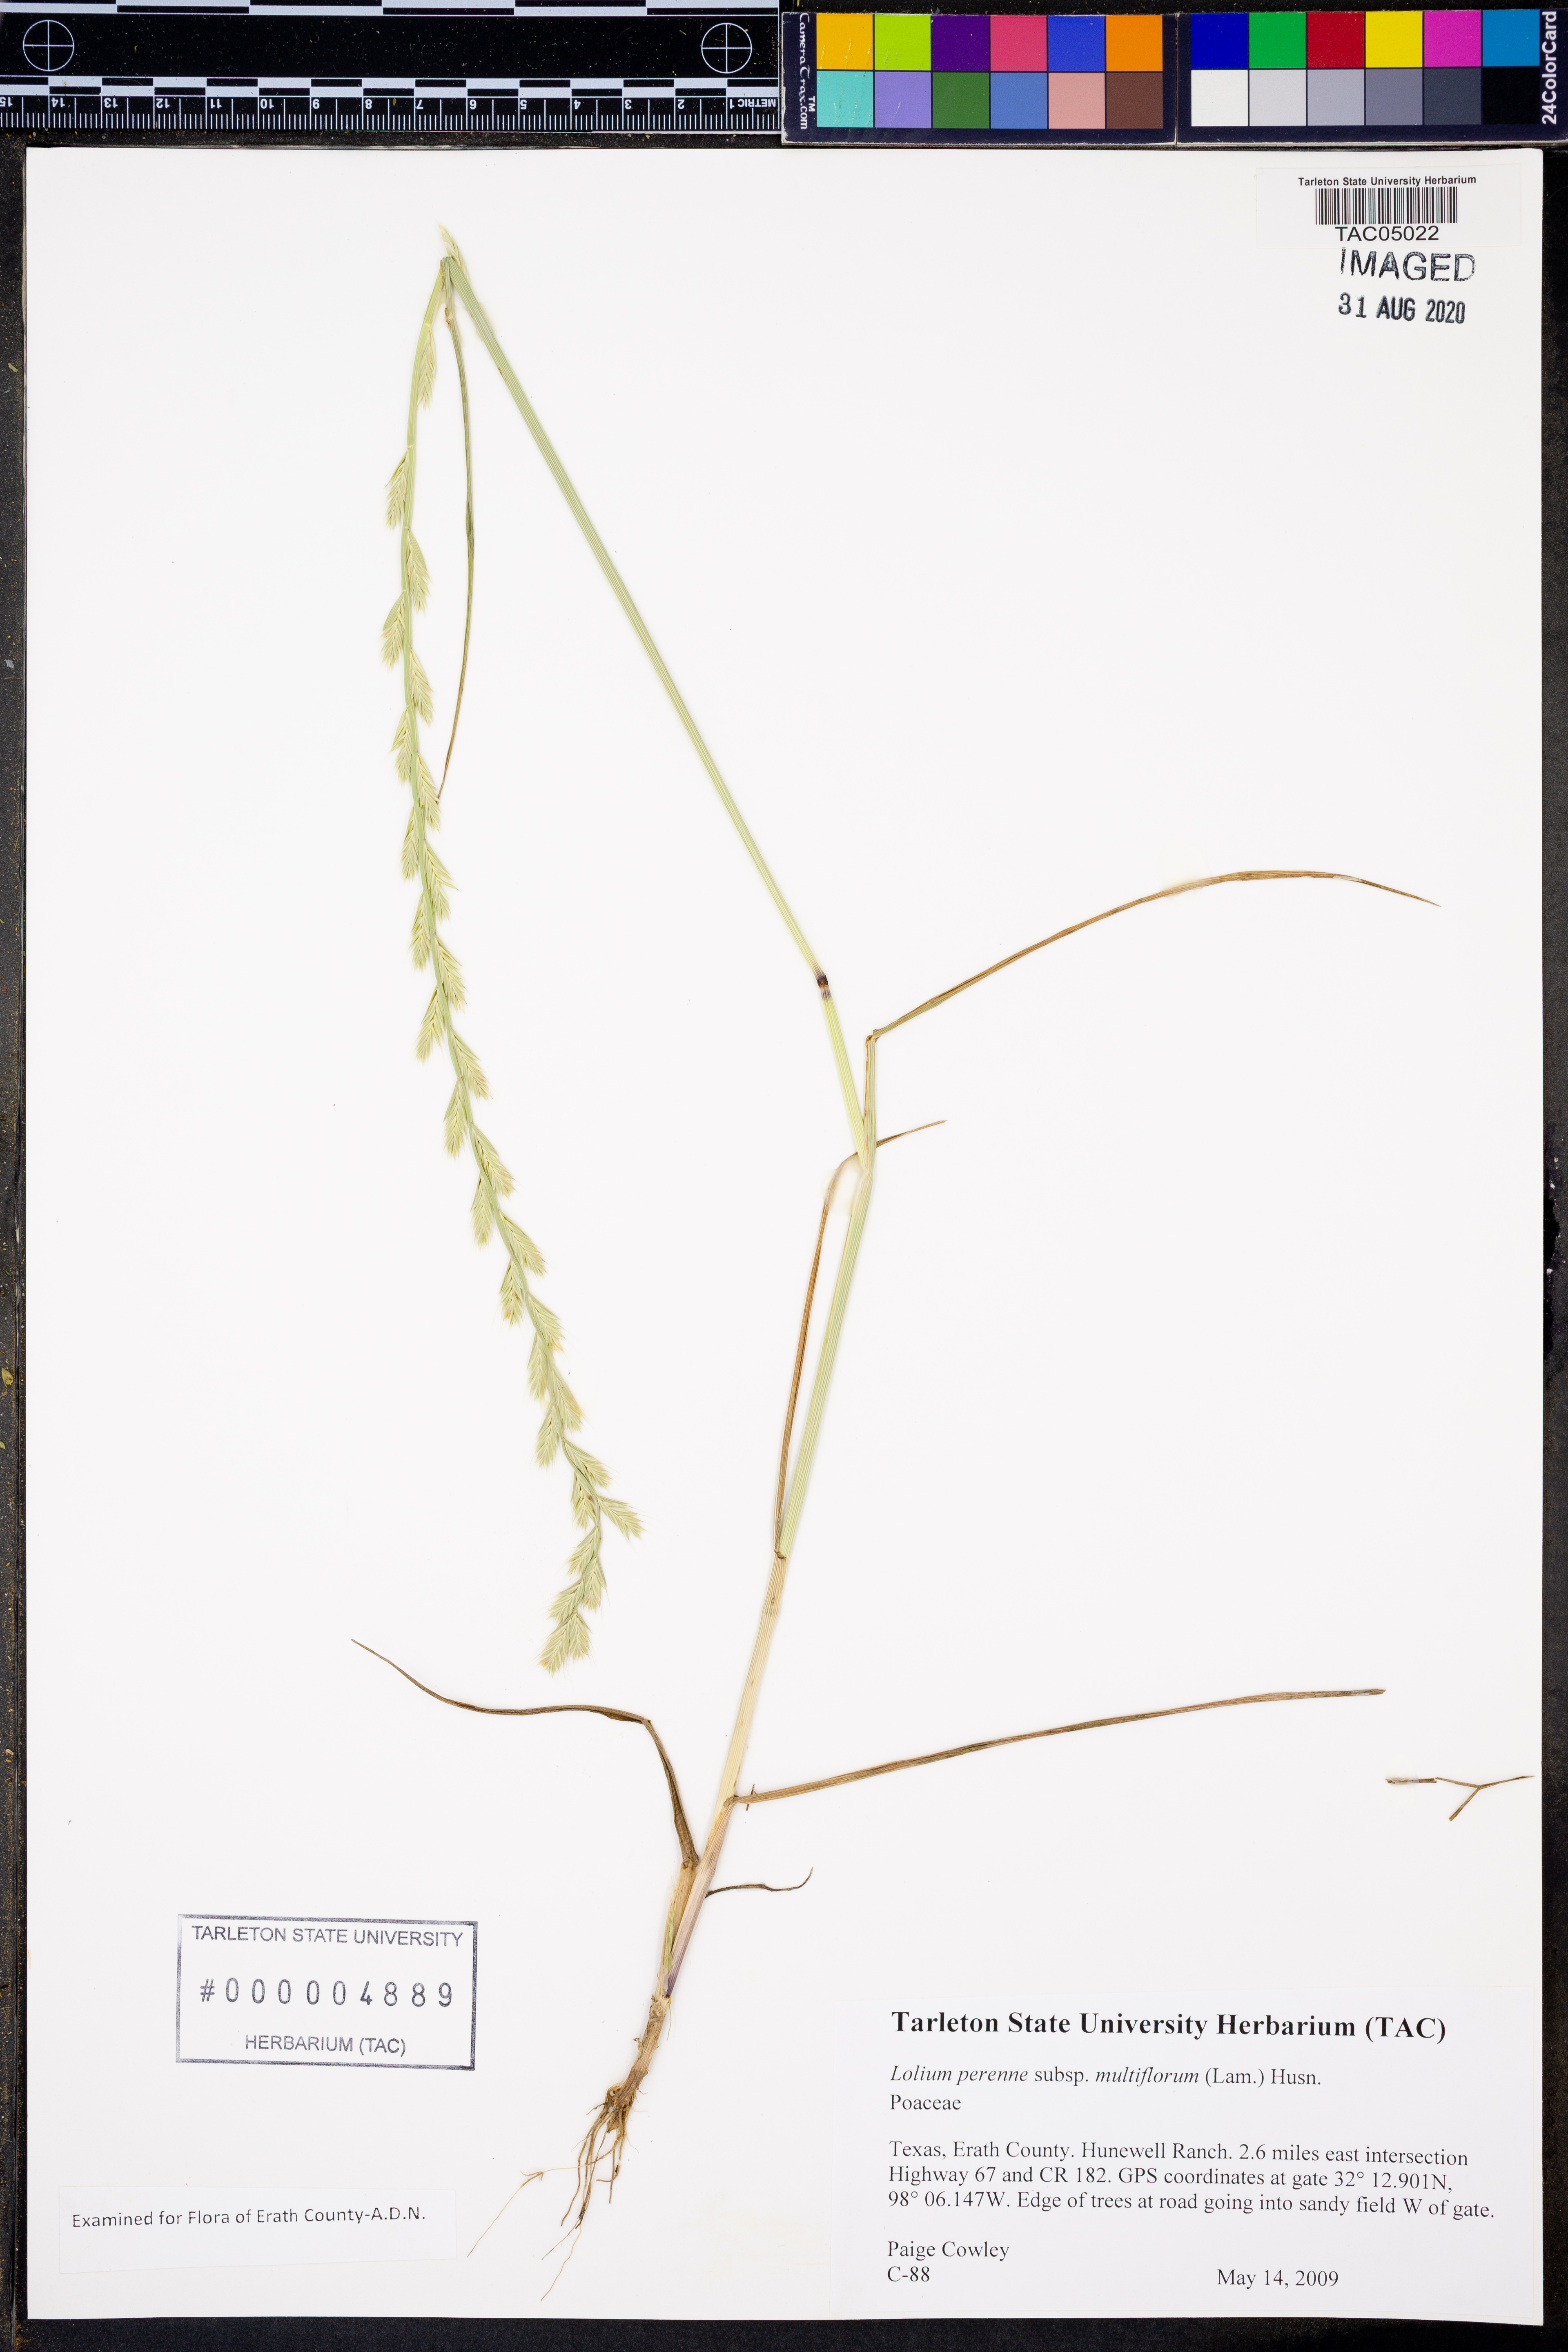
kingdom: Plantae
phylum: Tracheophyta
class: Liliopsida
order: Poales
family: Poaceae
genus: Lolium
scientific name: Lolium multiflorum
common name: Annual ryegrass
